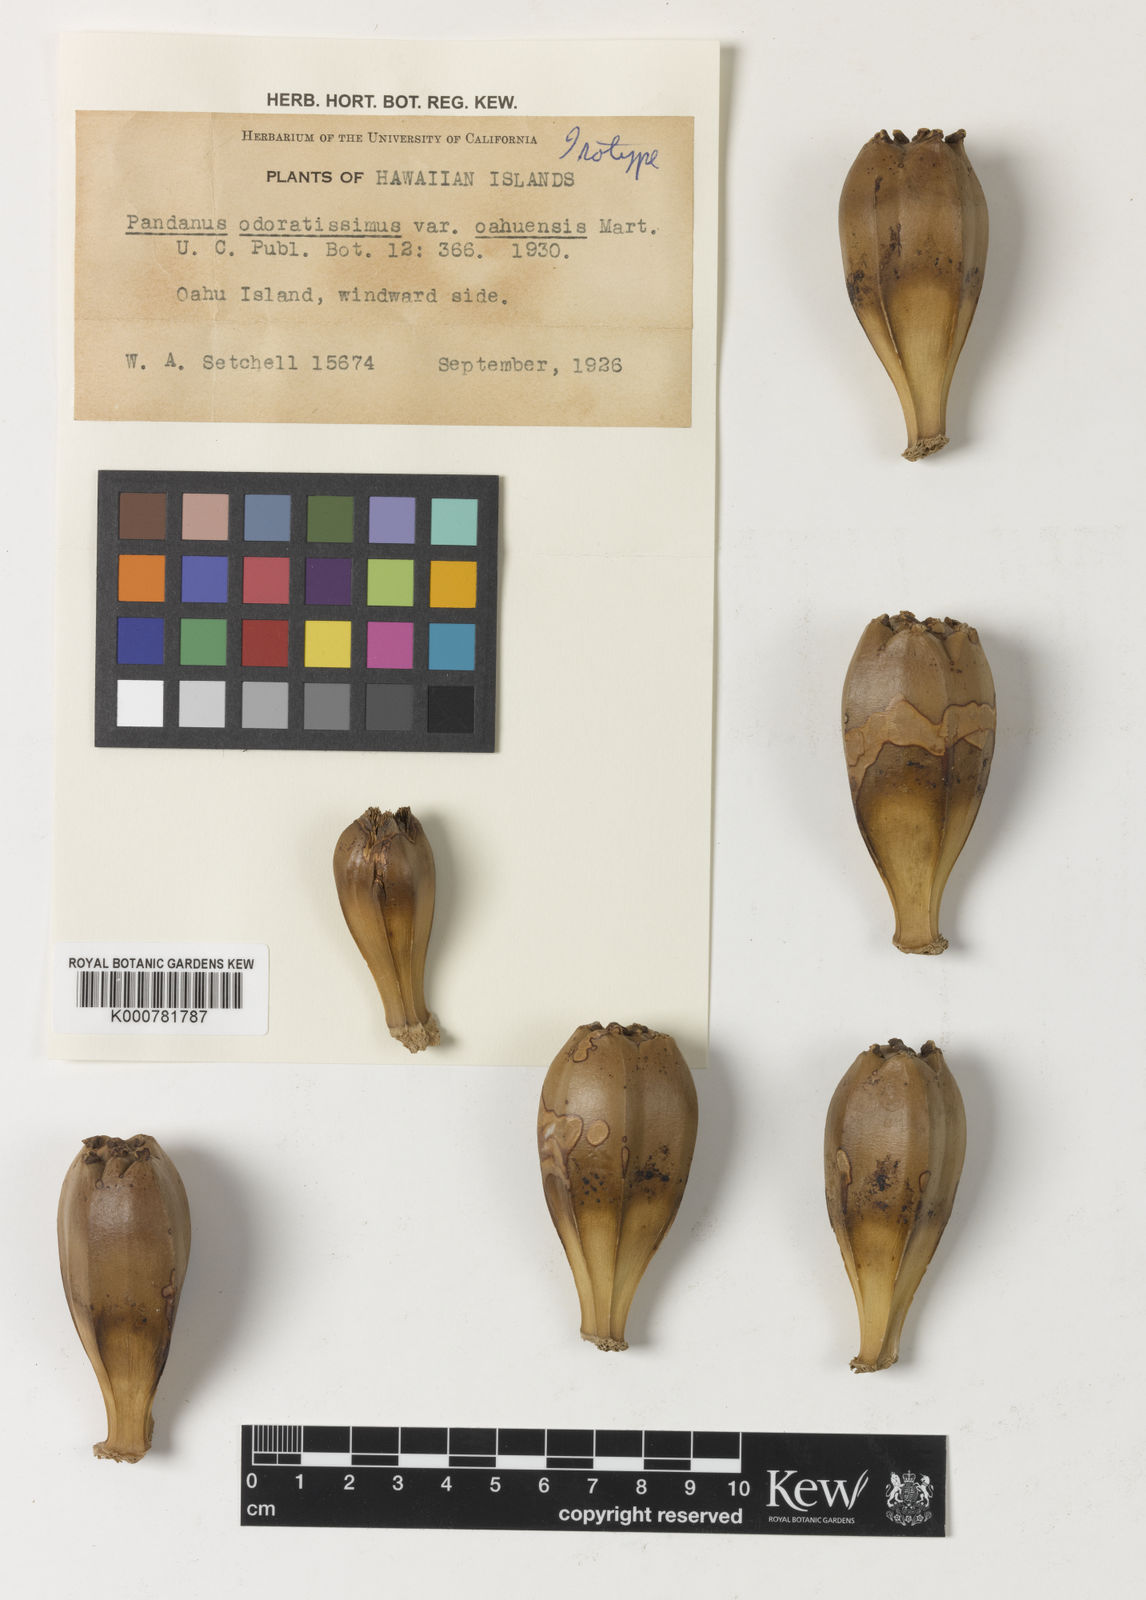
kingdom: Plantae
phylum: Tracheophyta
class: Liliopsida
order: Pandanales
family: Pandanaceae
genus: Pandanus
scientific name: Pandanus utilis
